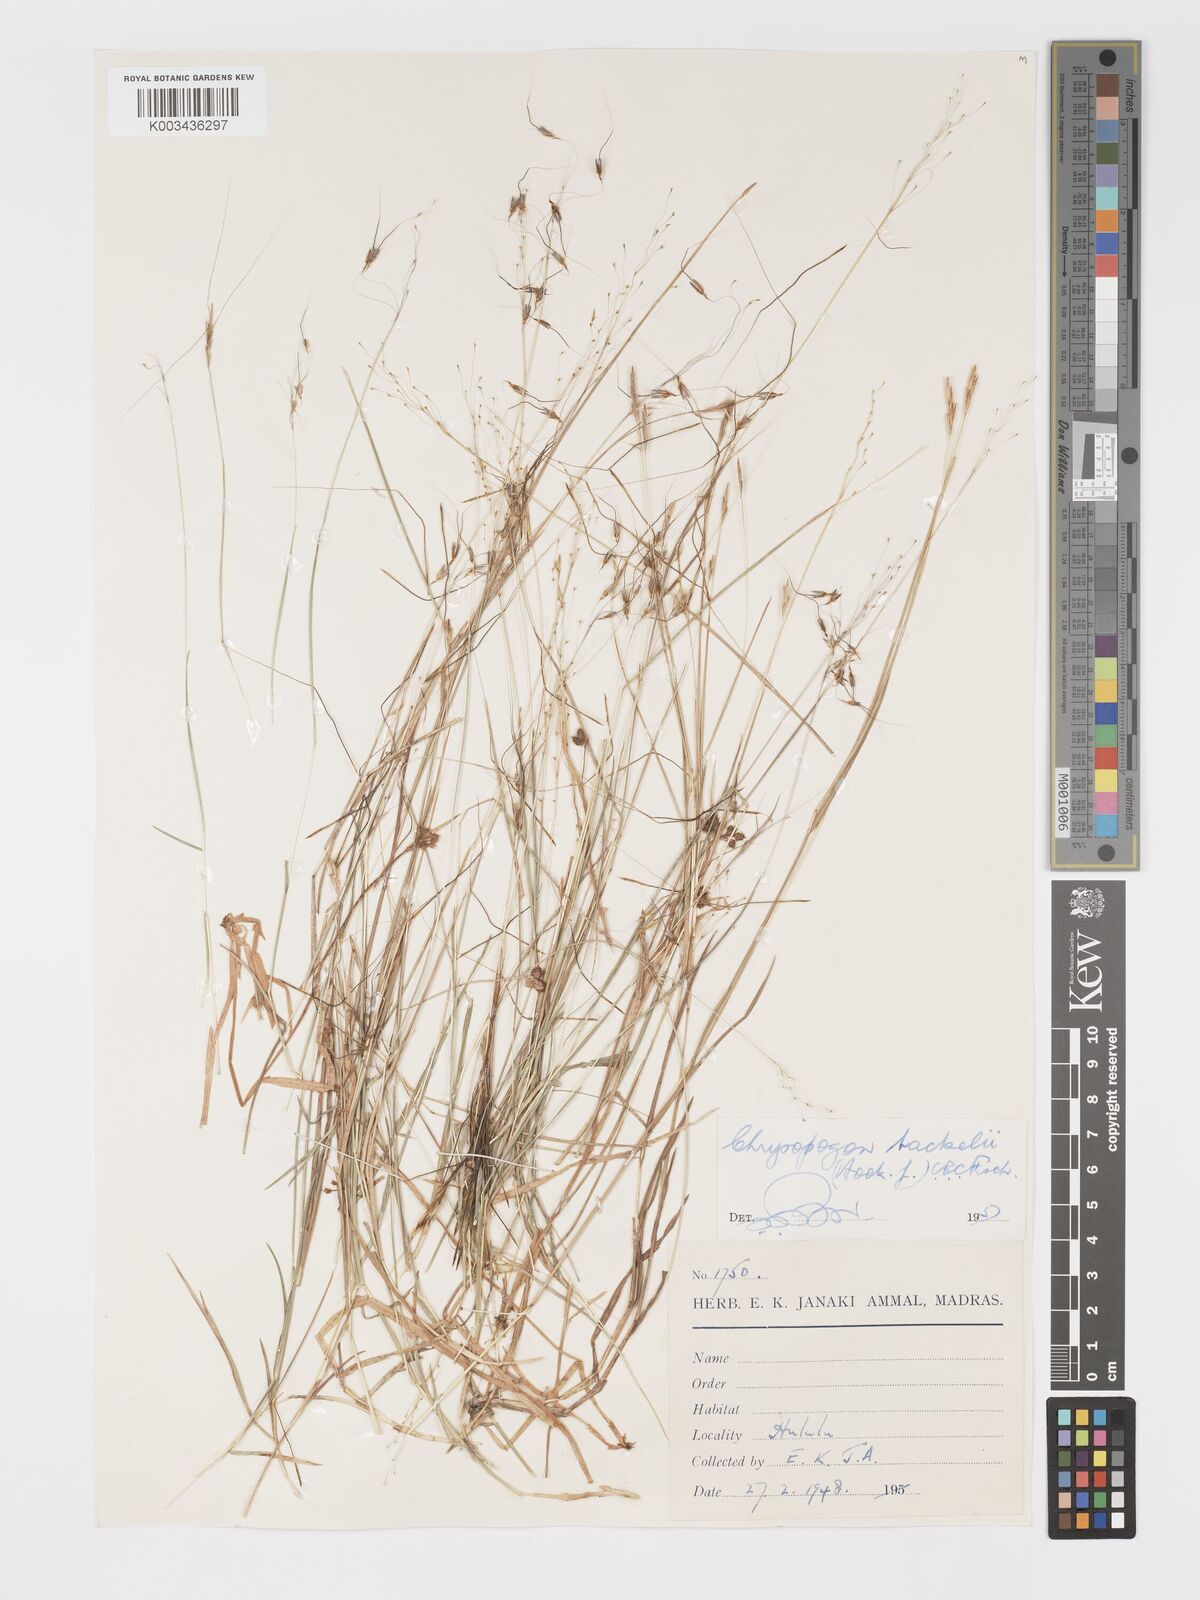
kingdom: Plantae
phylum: Tracheophyta
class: Liliopsida
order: Poales
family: Poaceae
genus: Chrysopogon
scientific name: Chrysopogon fulvus
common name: Red false beardgrass
